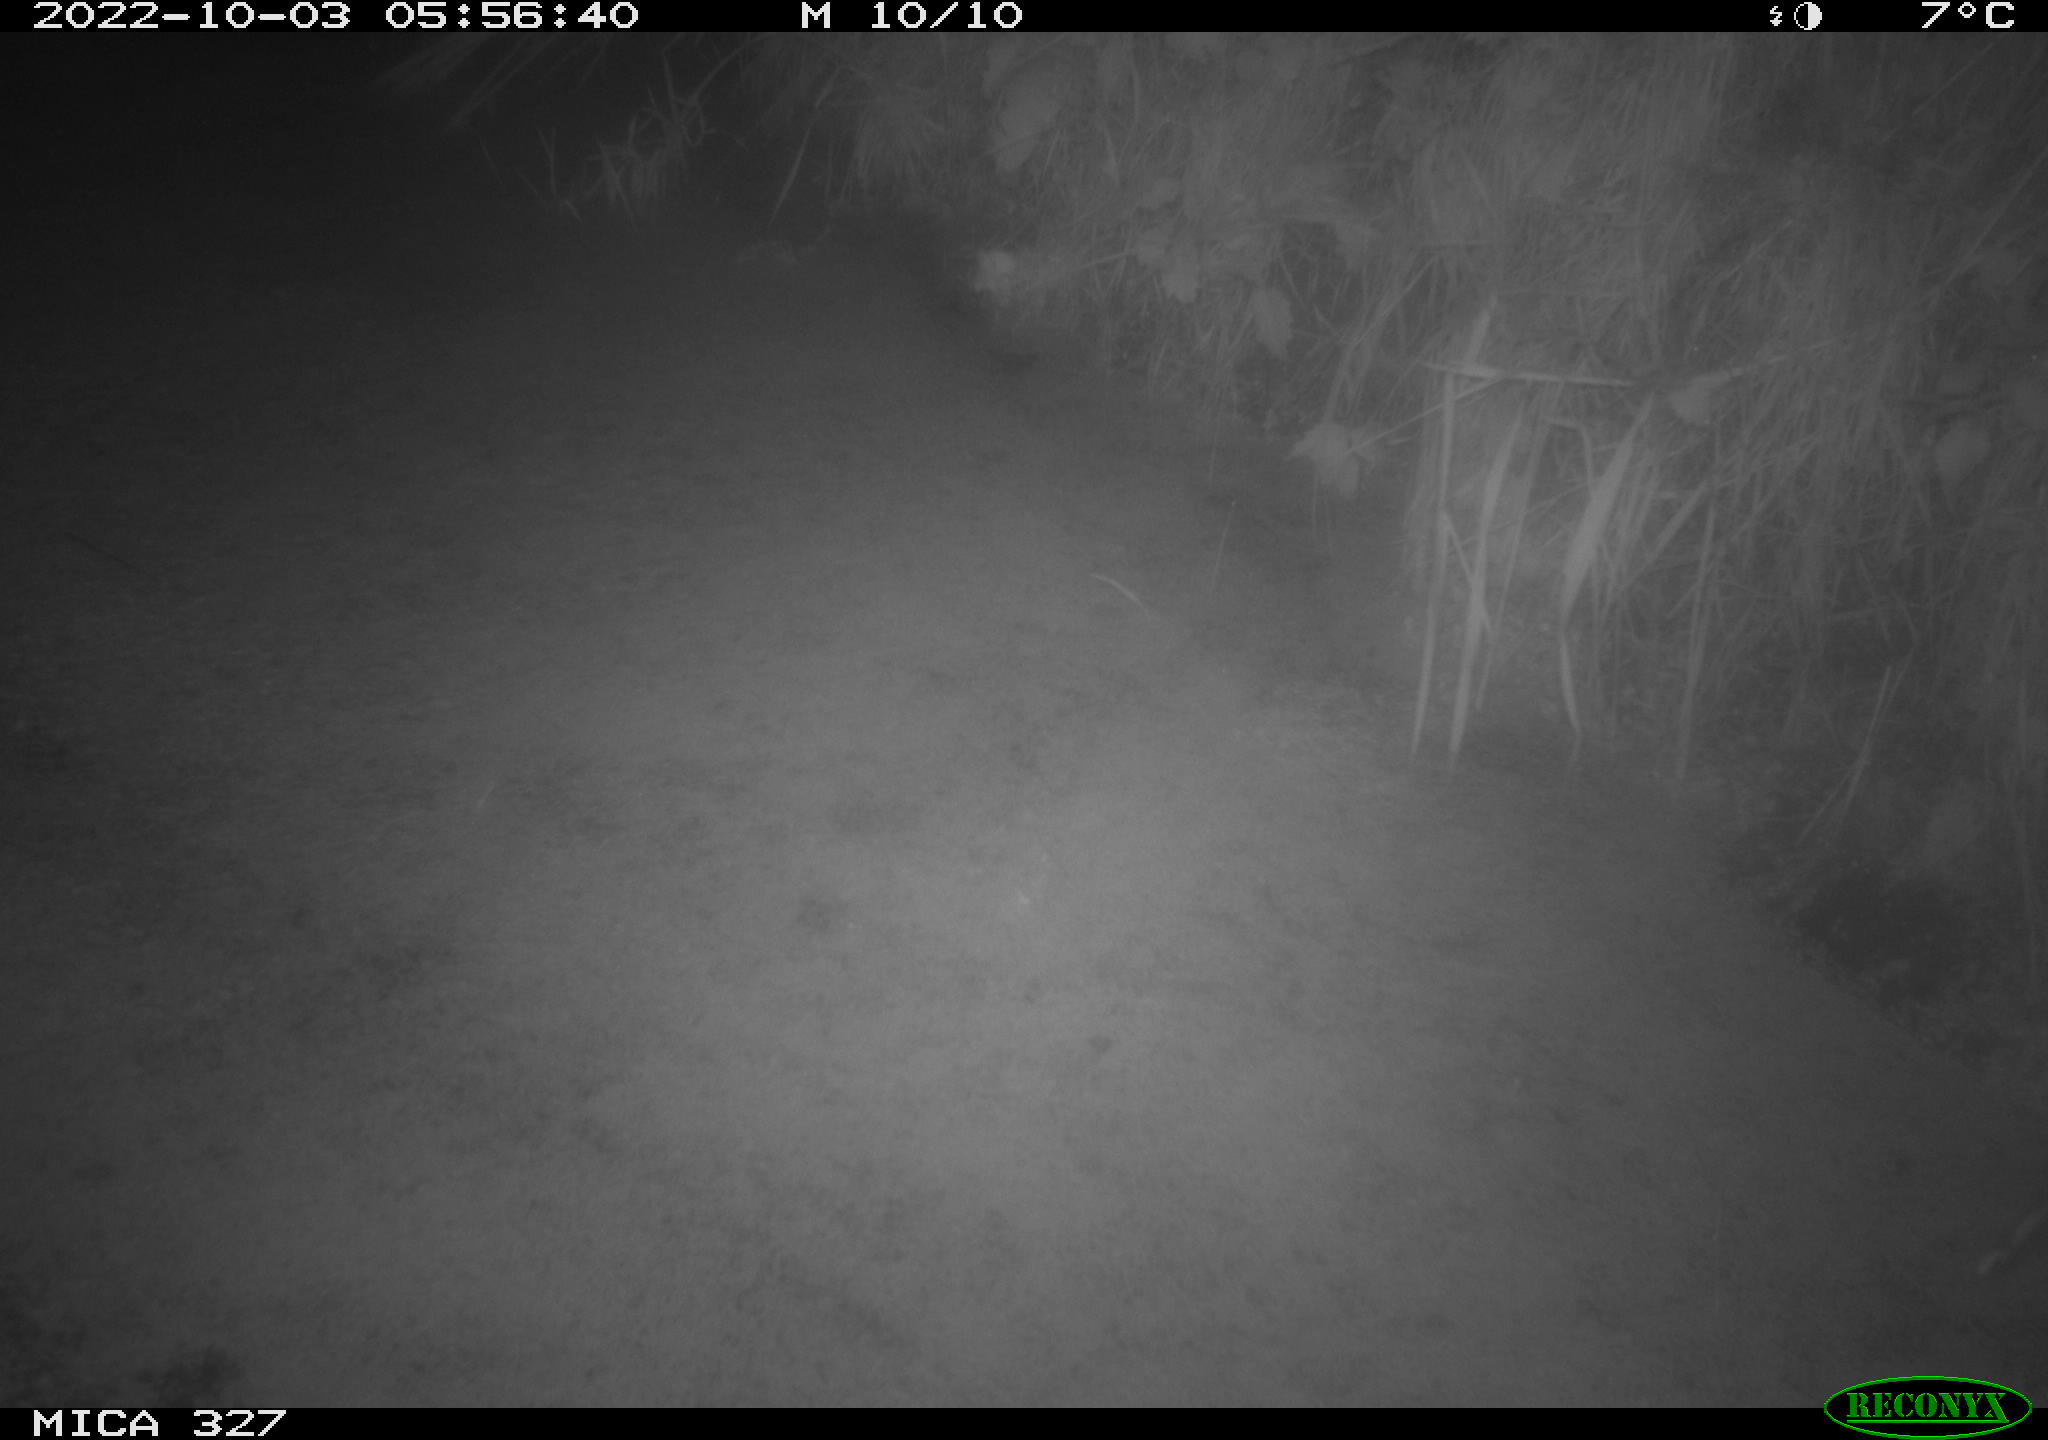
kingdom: Animalia
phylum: Chordata
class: Mammalia
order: Rodentia
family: Cricetidae
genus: Ondatra
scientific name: Ondatra zibethicus
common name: Muskrat
